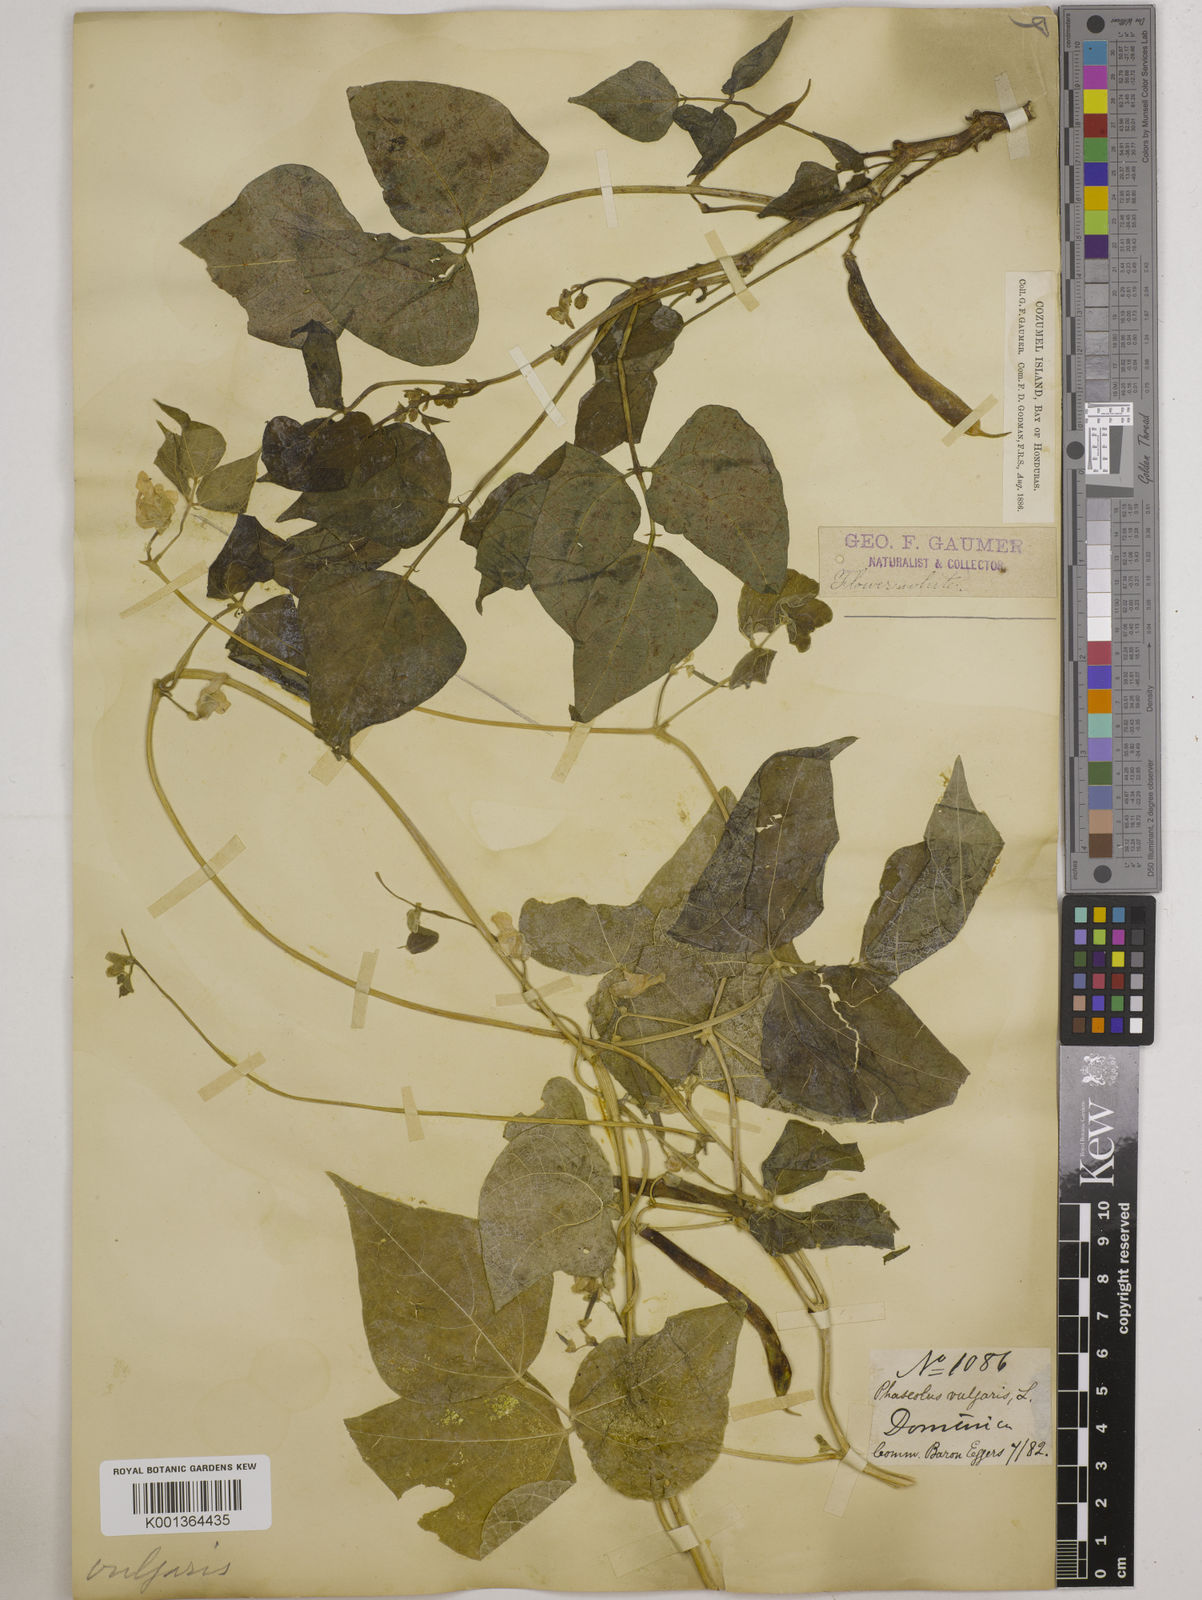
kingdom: Plantae
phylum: Tracheophyta
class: Magnoliopsida
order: Fabales
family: Fabaceae
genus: Phaseolus
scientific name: Phaseolus vulgaris
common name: Bean
